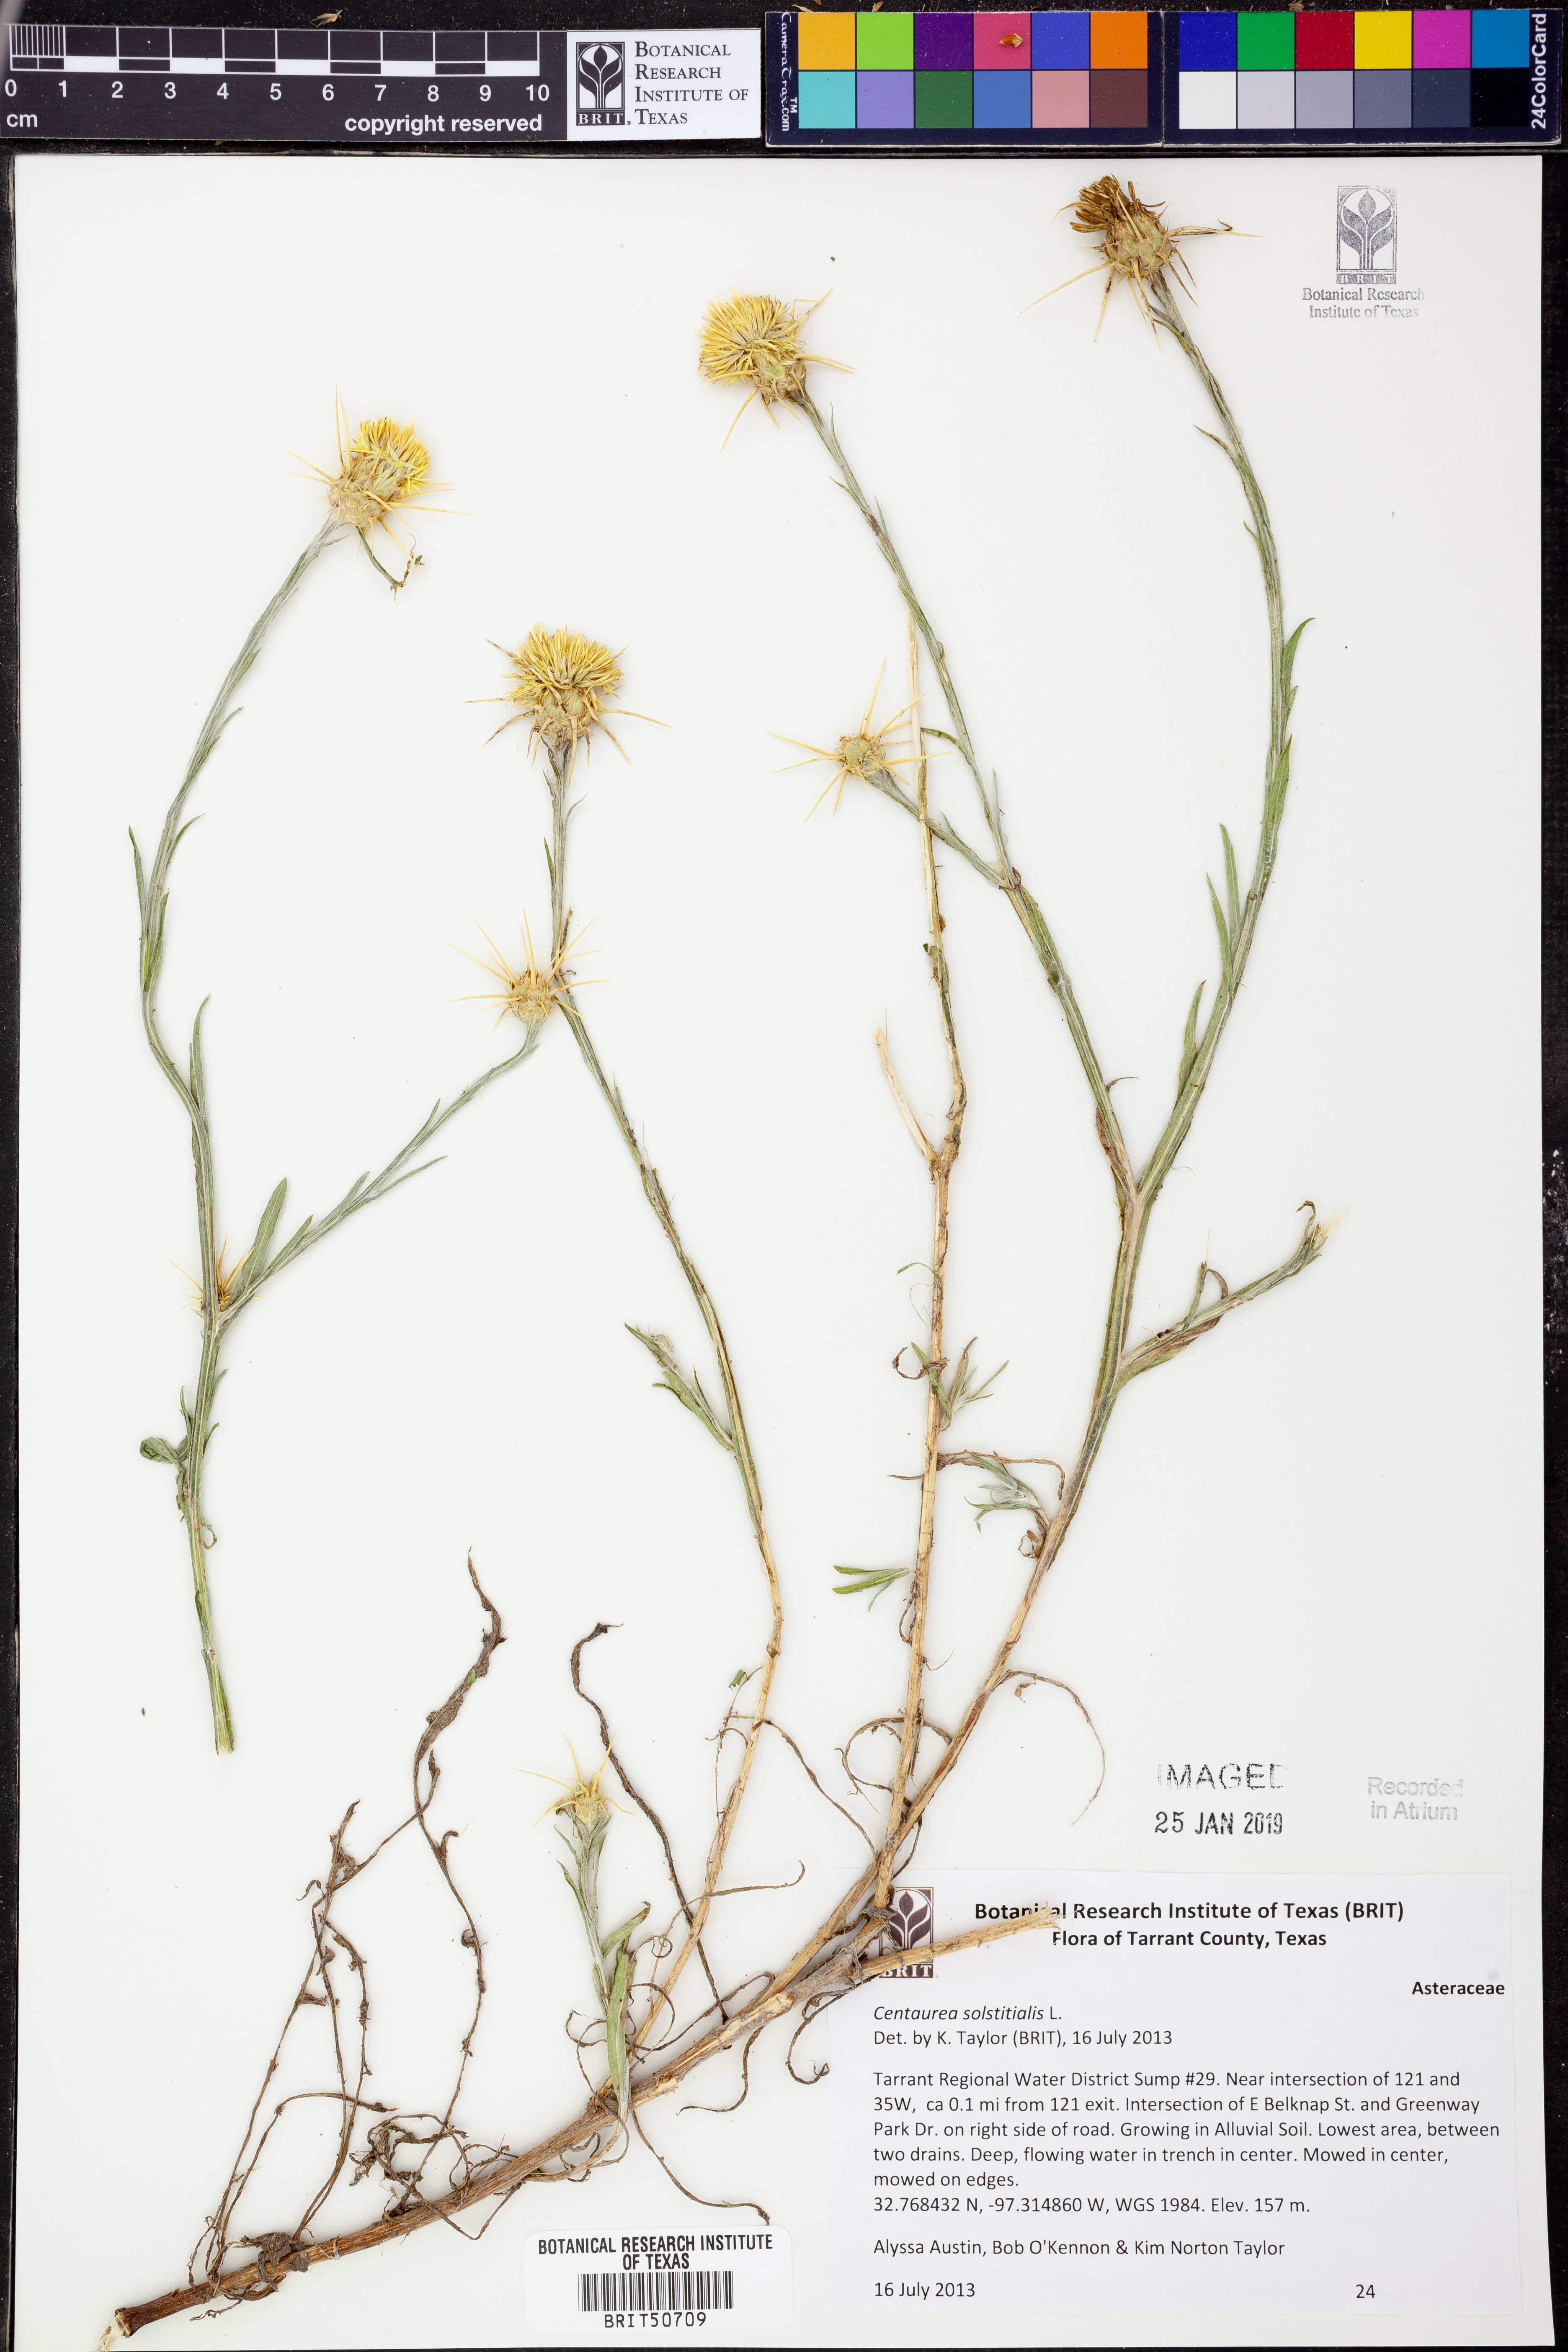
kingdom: Plantae
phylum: Tracheophyta
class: Magnoliopsida
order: Asterales
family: Asteraceae
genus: Centaurea
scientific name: Centaurea solstitialis
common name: Yellow star-thistle
